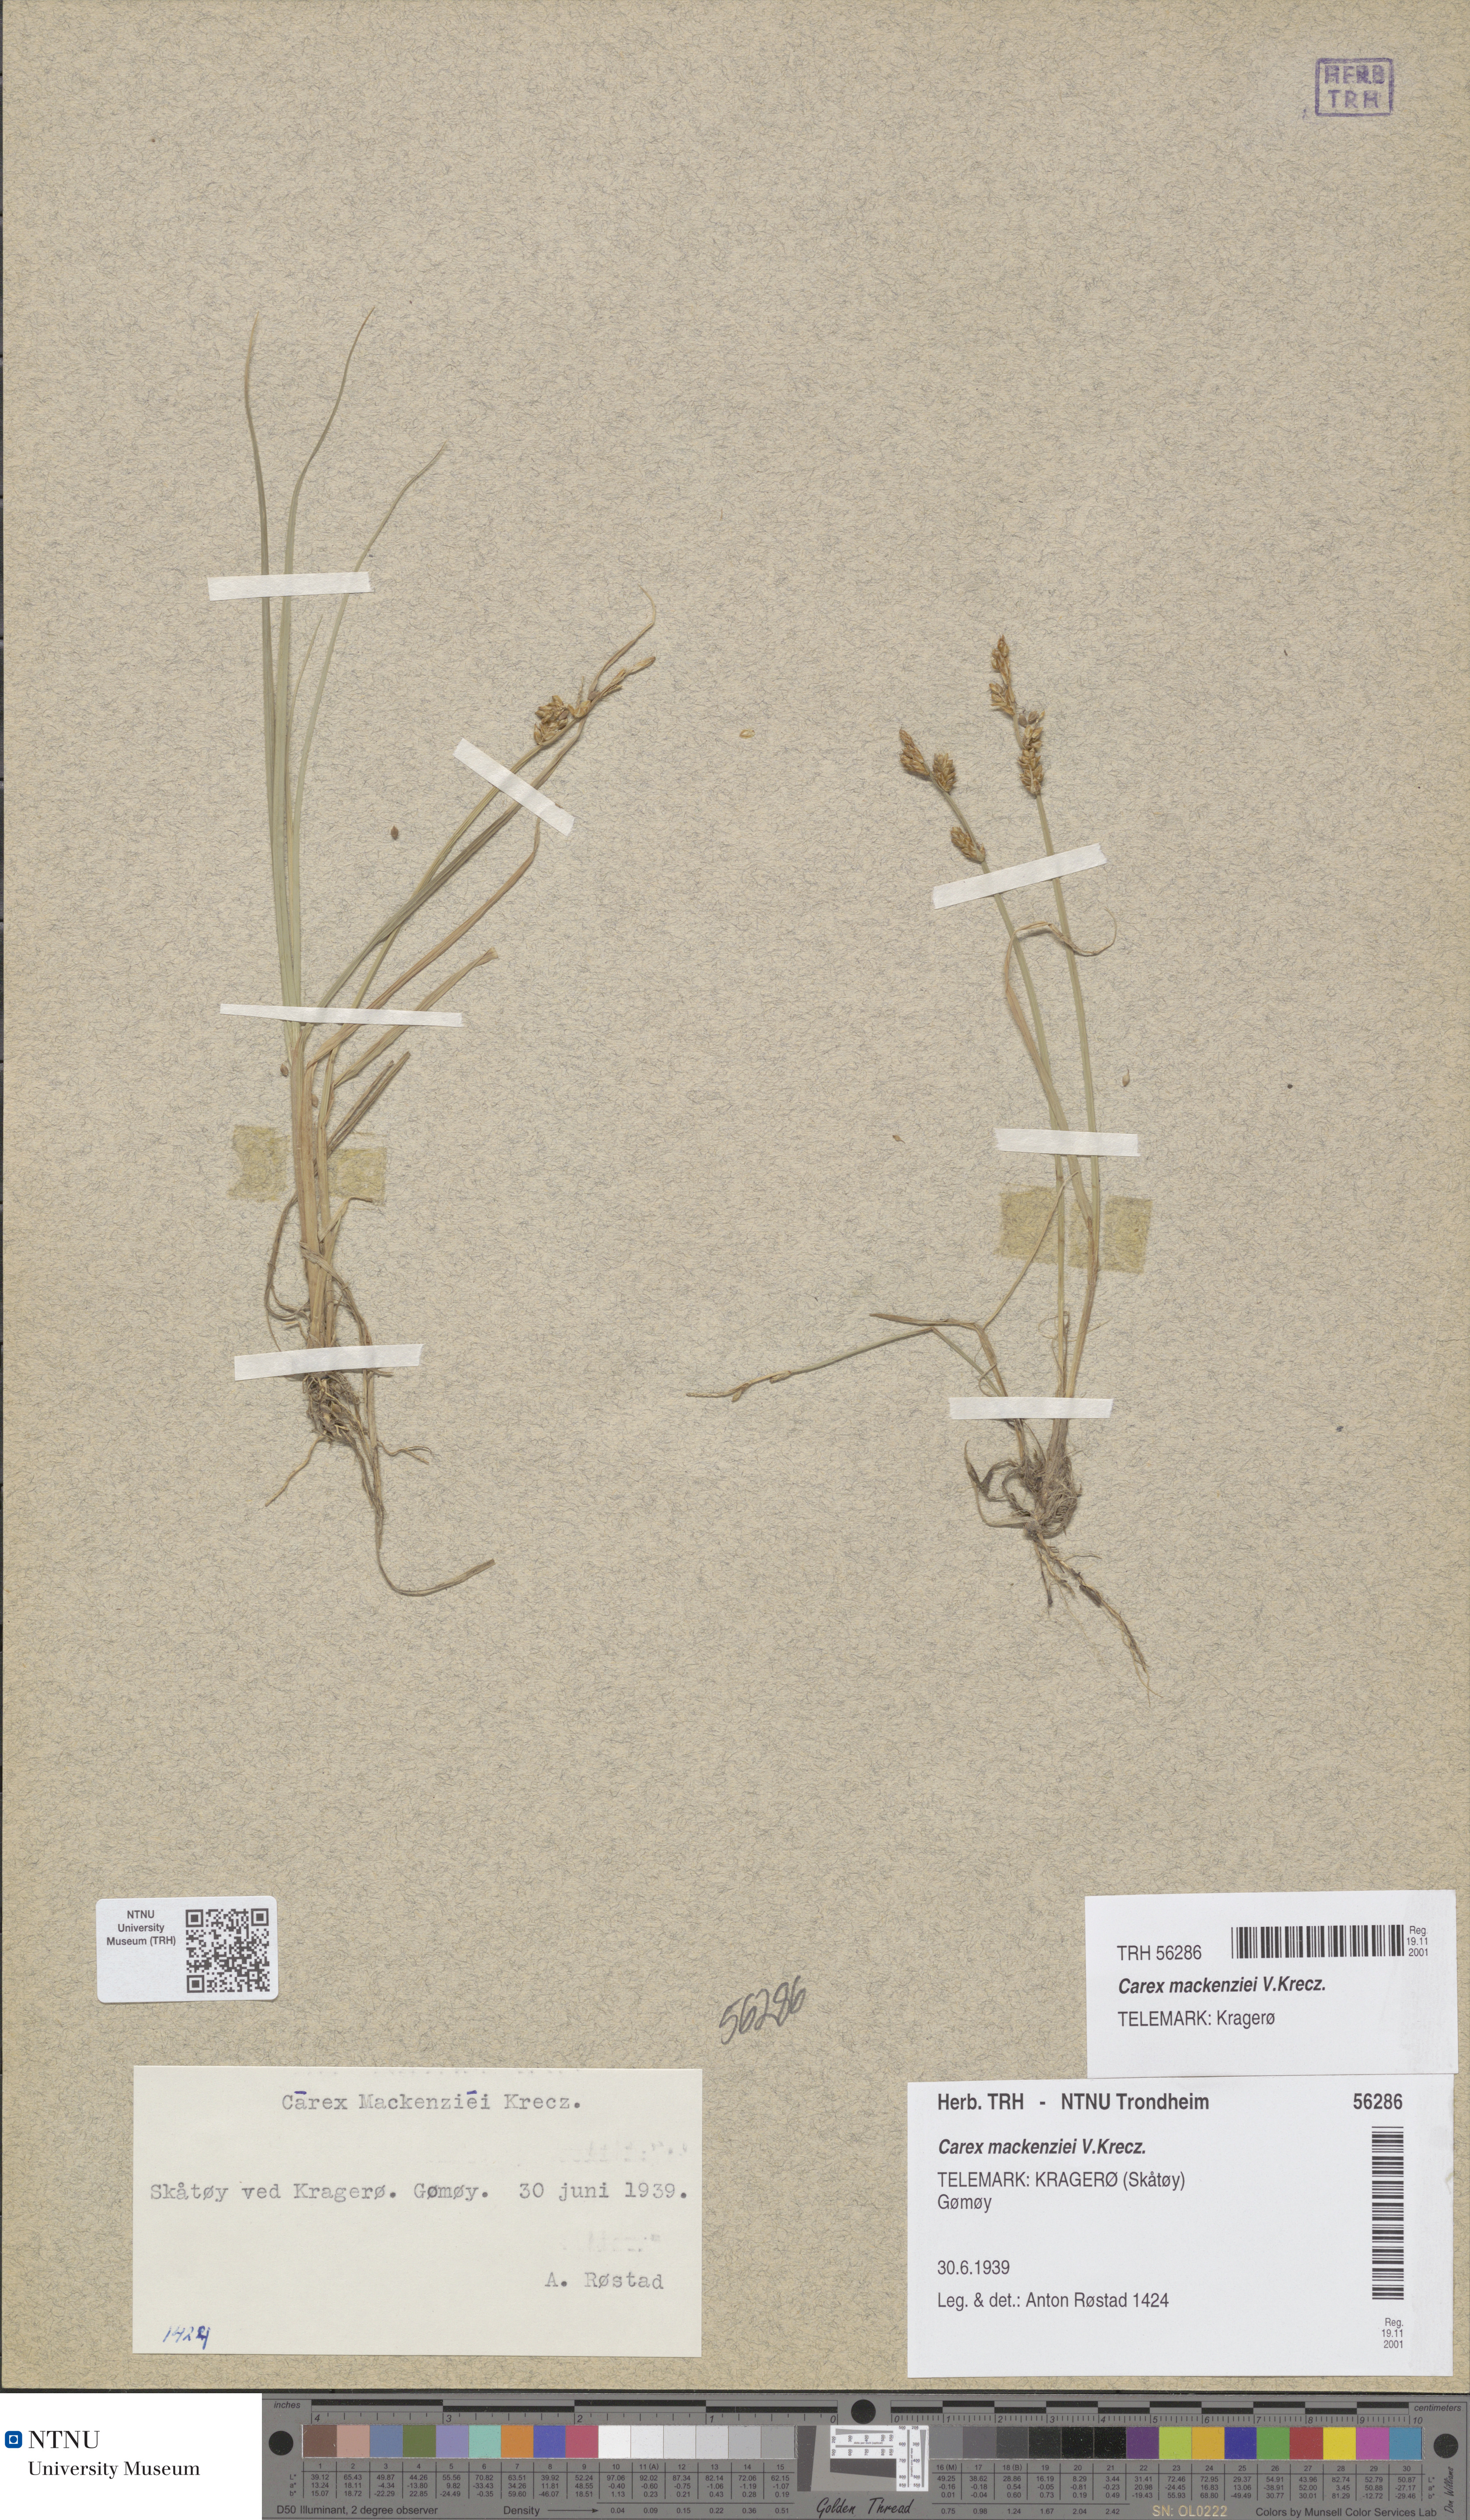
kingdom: Plantae
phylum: Tracheophyta
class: Liliopsida
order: Poales
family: Cyperaceae
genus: Carex
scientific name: Carex mackenziei
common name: Mackenzie's sedge
